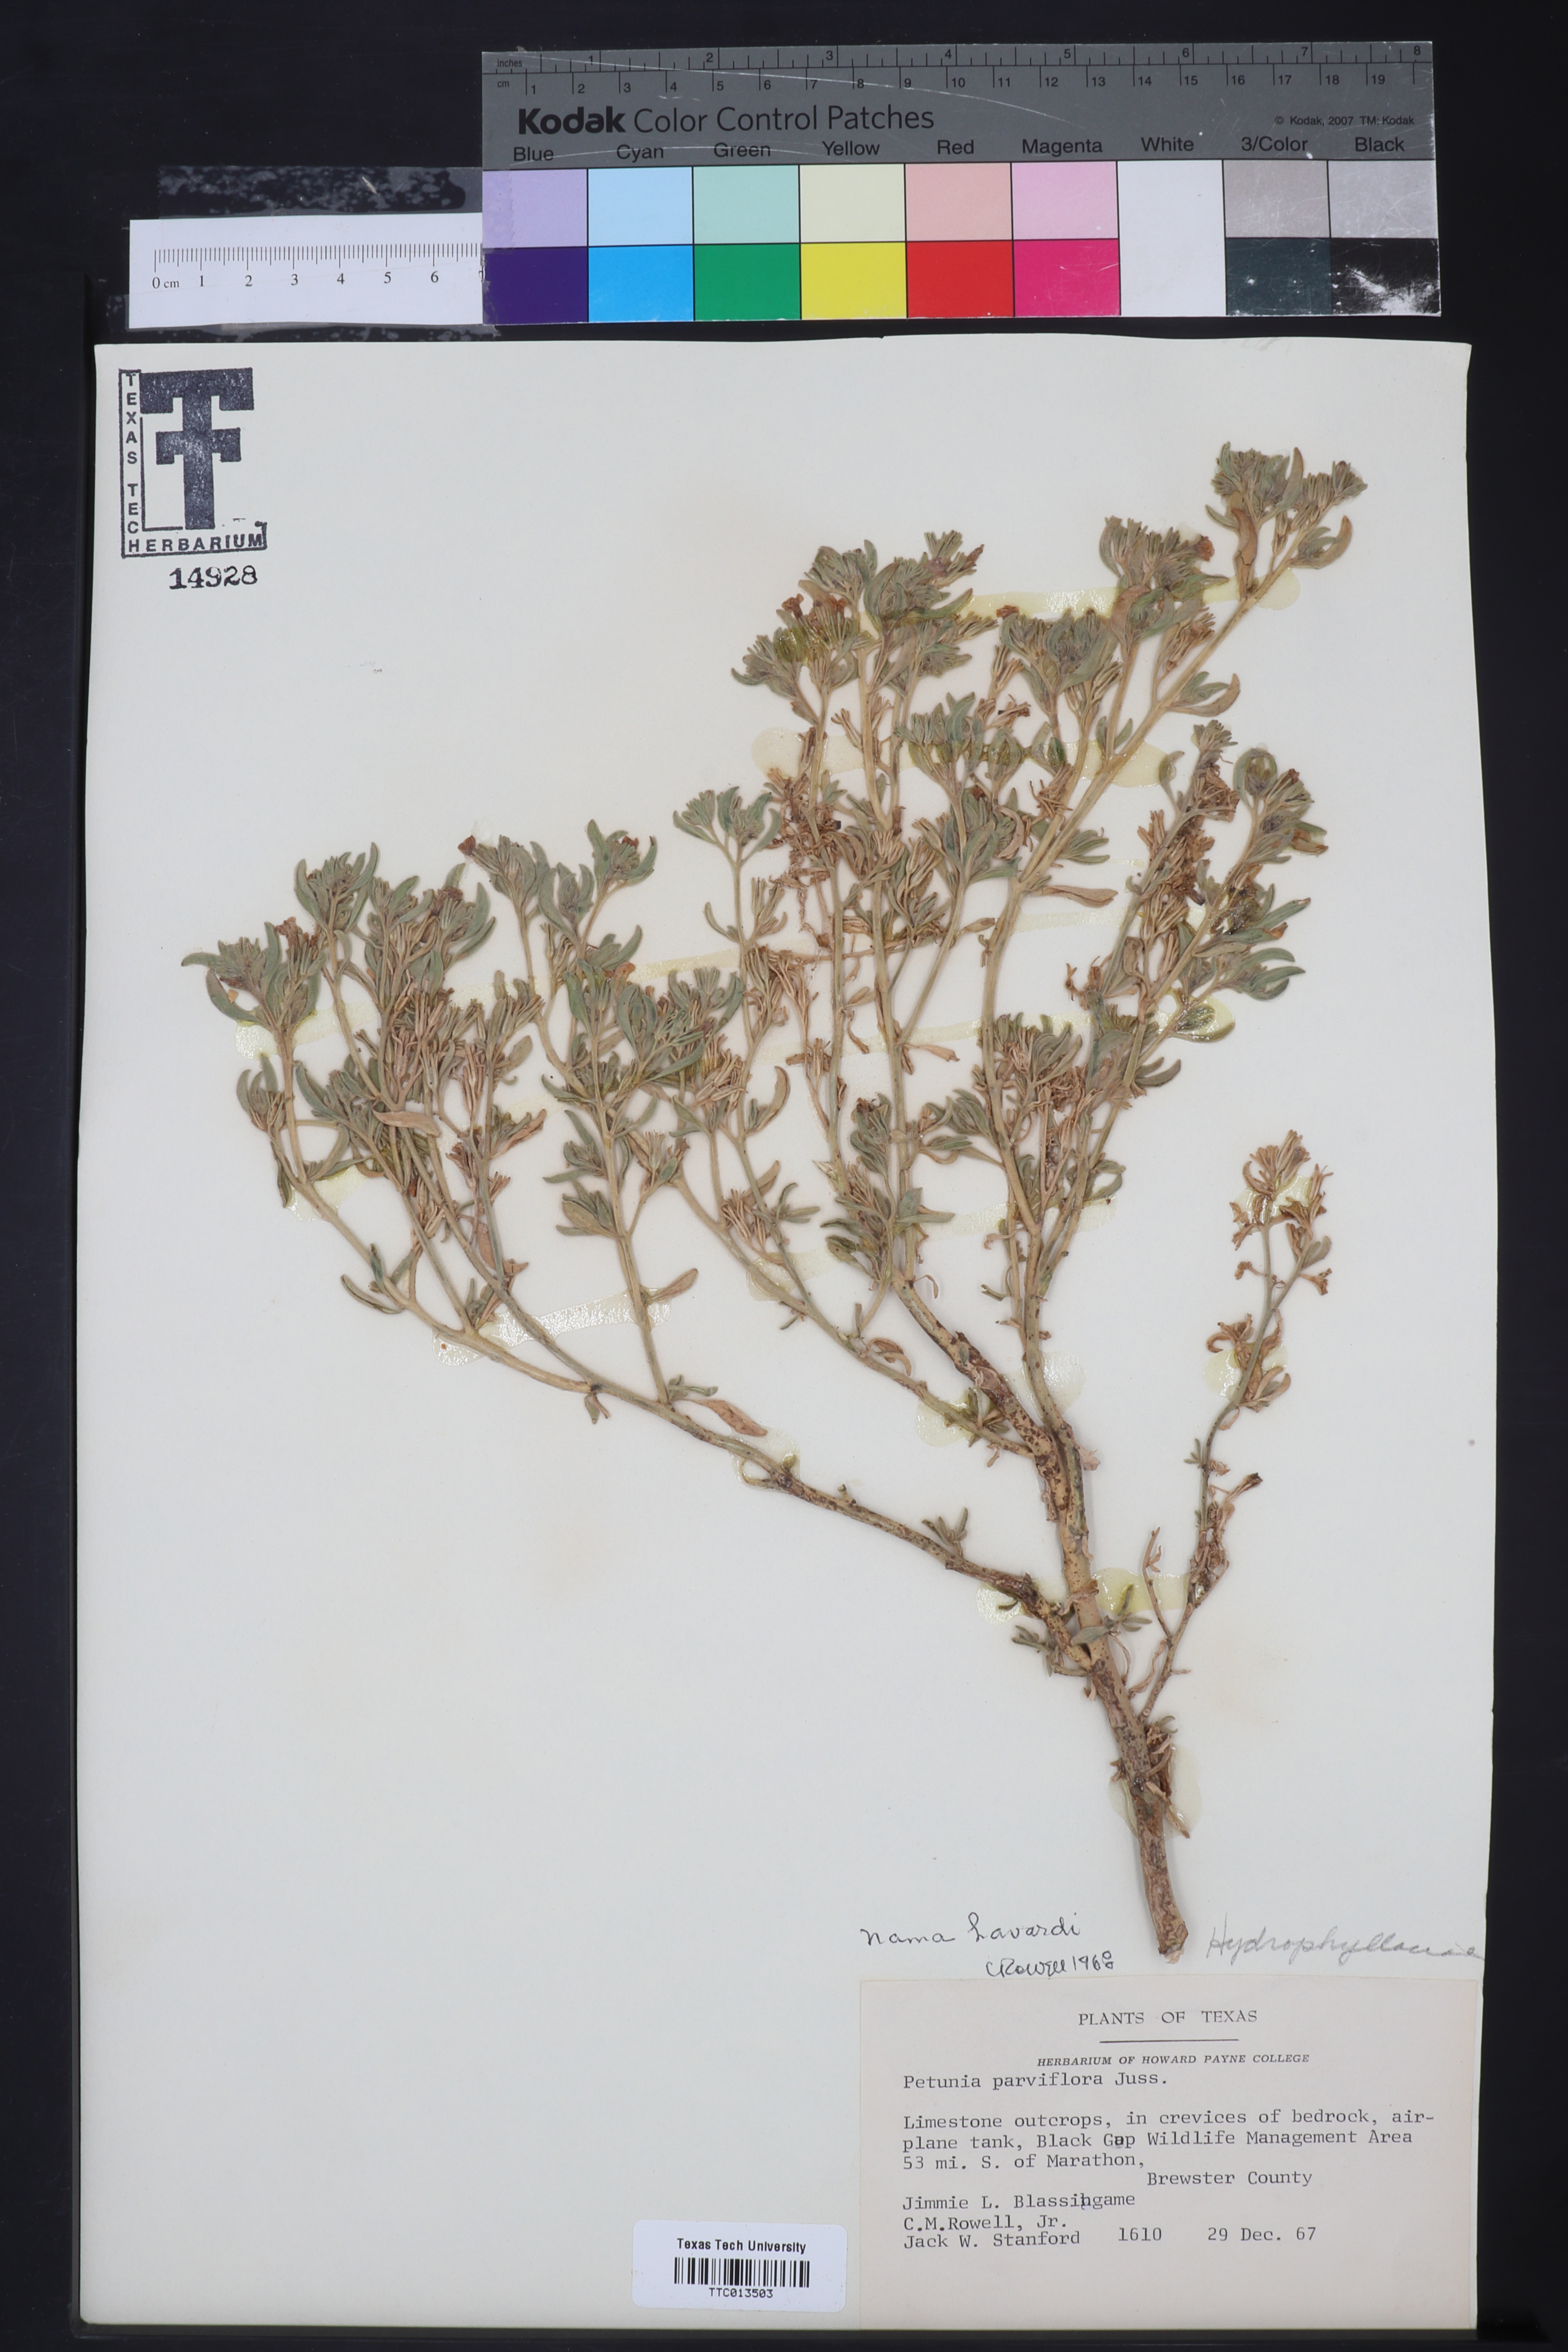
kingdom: Plantae
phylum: Tracheophyta
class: Magnoliopsida
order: Boraginales
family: Namaceae
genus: Nama
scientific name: Nama hispida
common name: Bristly nama
